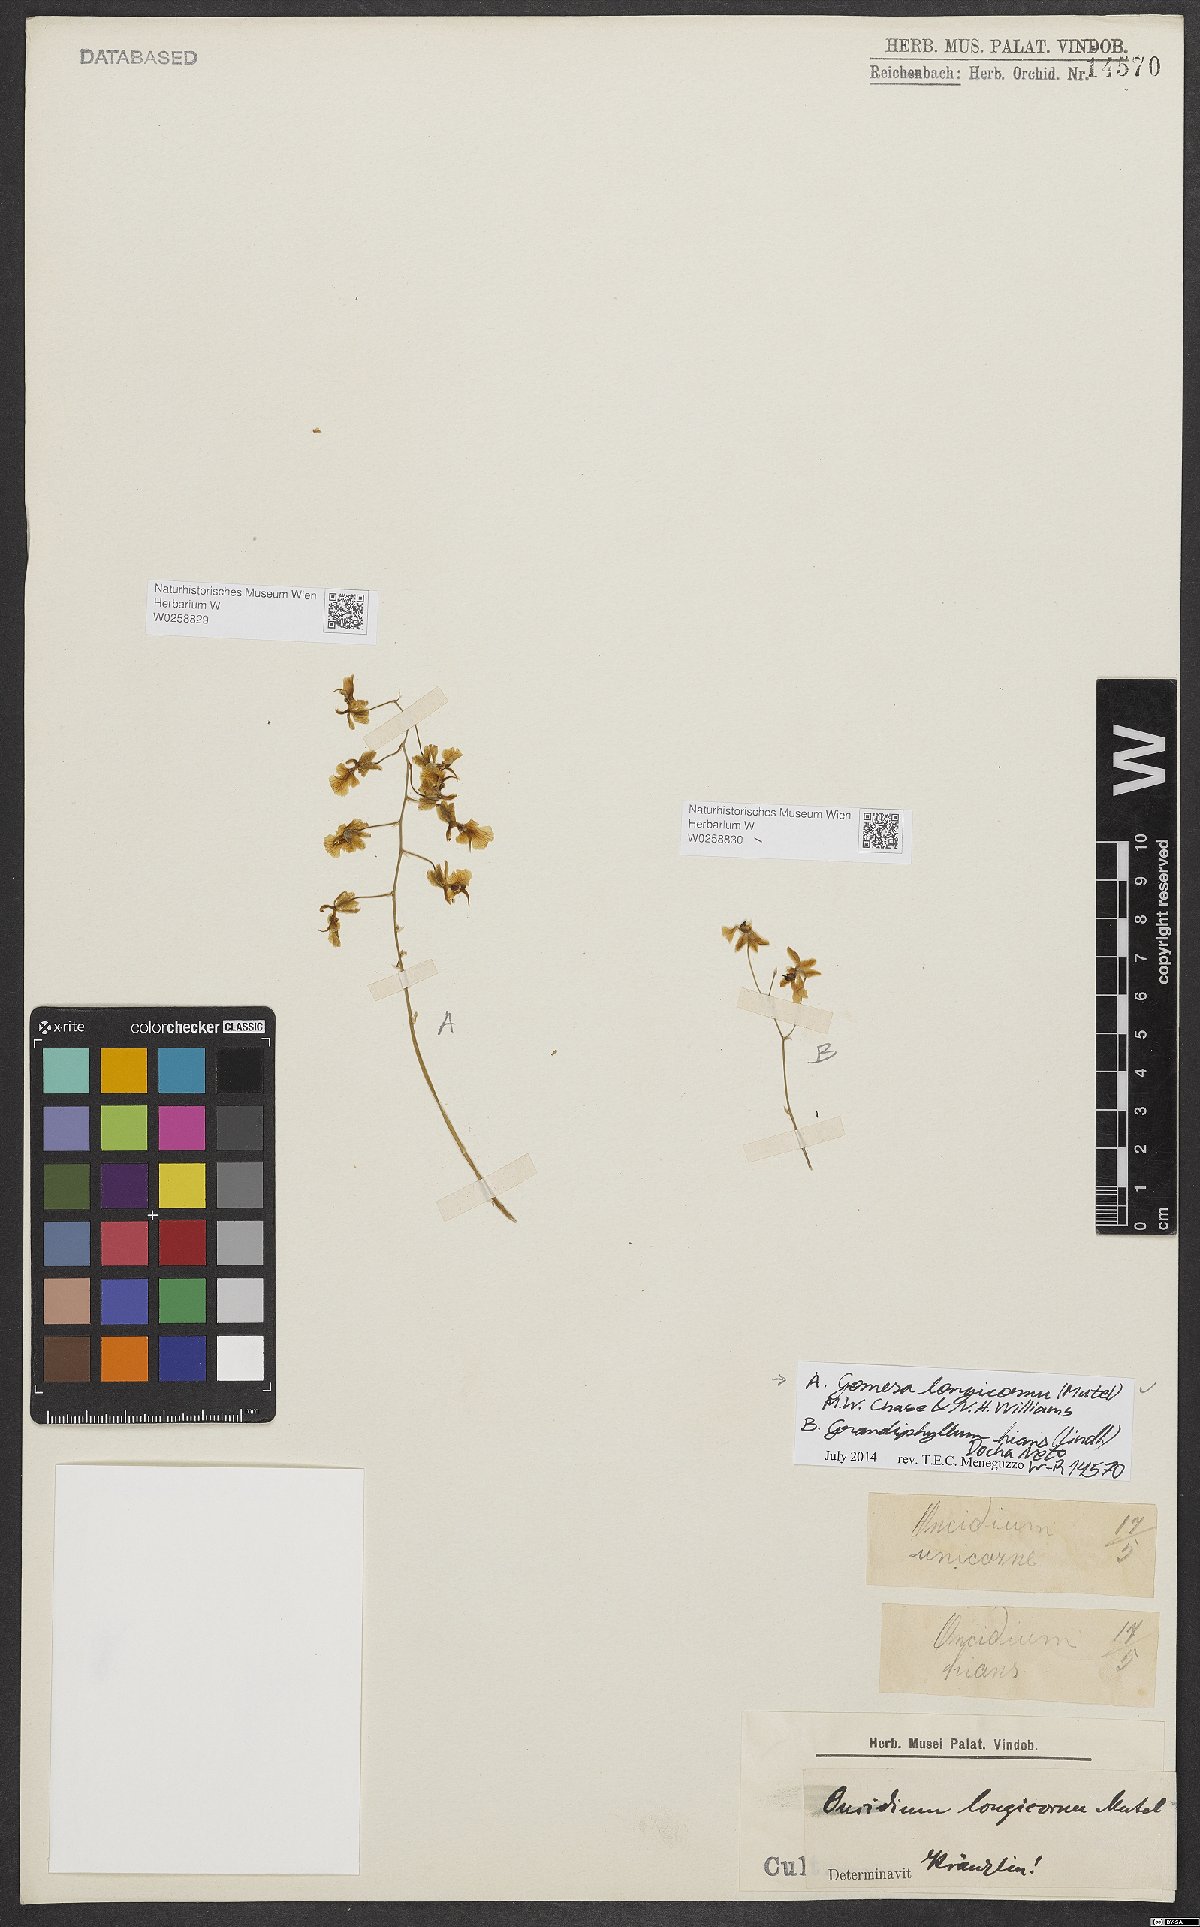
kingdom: Plantae
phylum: Tracheophyta
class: Liliopsida
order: Asparagales
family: Orchidaceae
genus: Gomesa
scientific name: Gomesa florida
